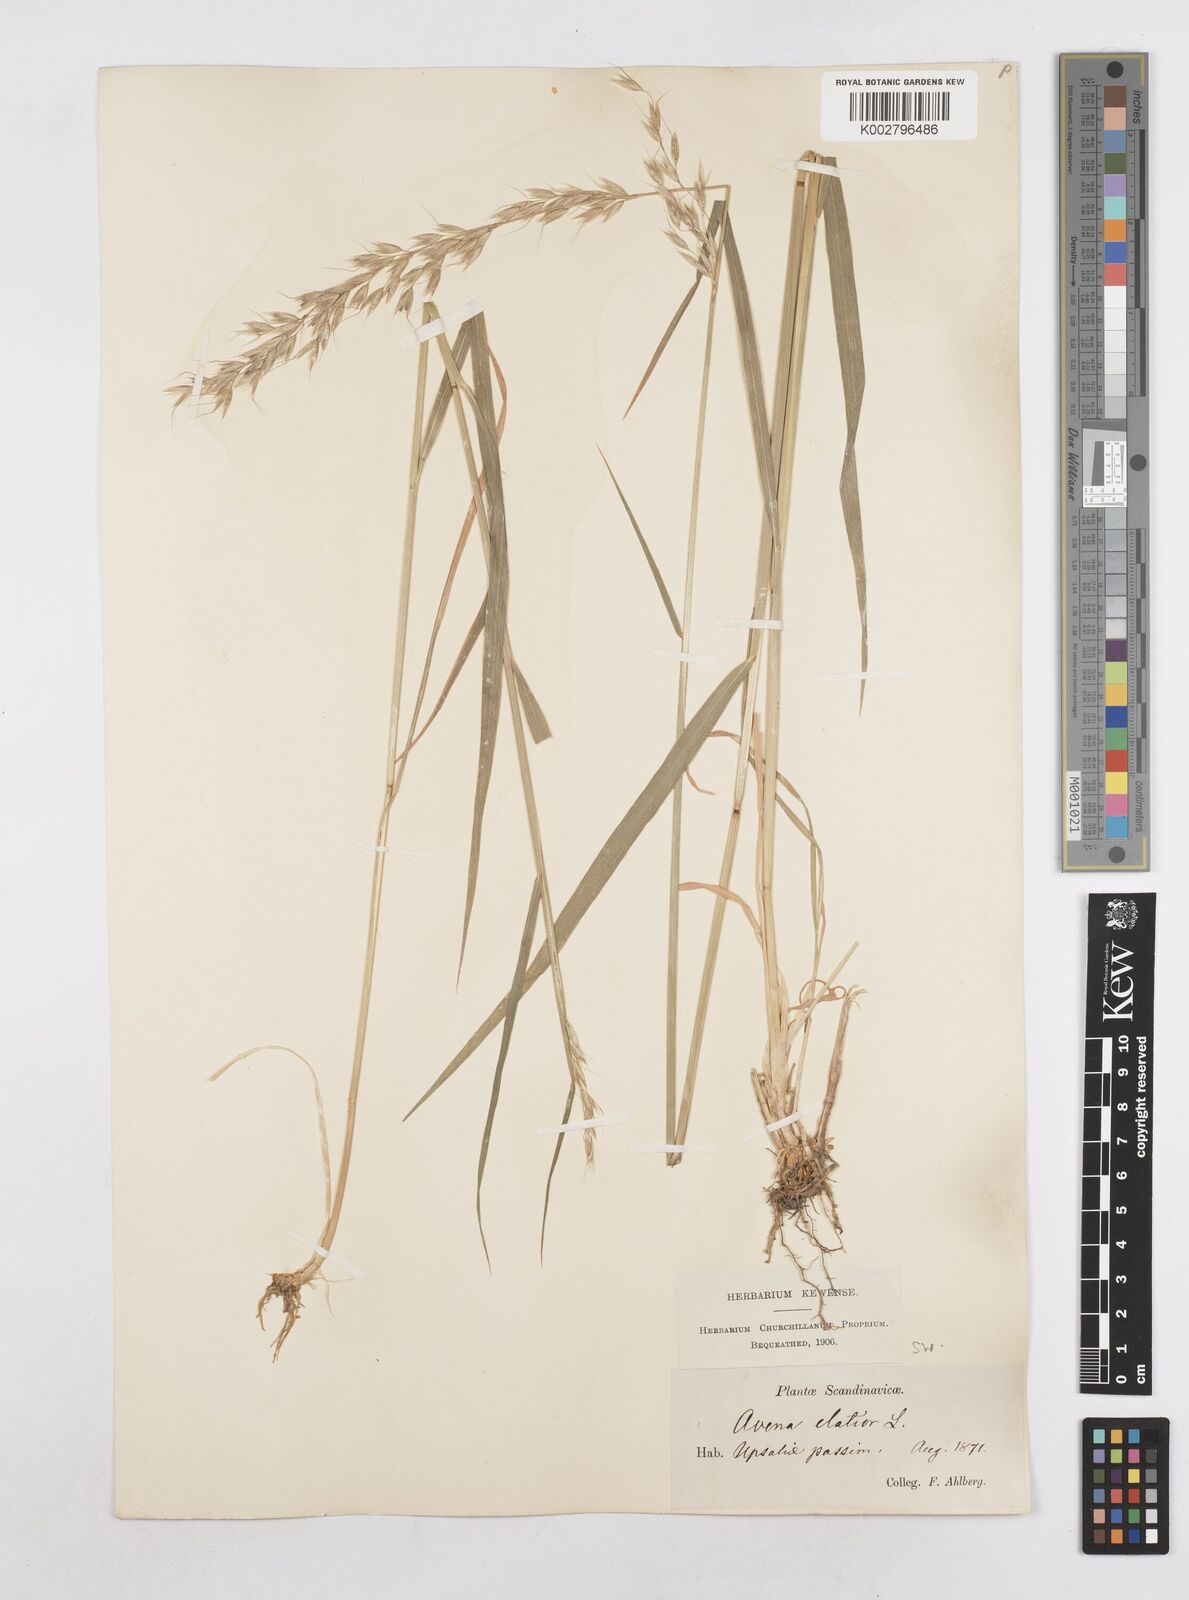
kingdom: Plantae
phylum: Tracheophyta
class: Liliopsida
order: Poales
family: Poaceae
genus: Arrhenatherum
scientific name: Arrhenatherum elatius
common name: Tall oatgrass
